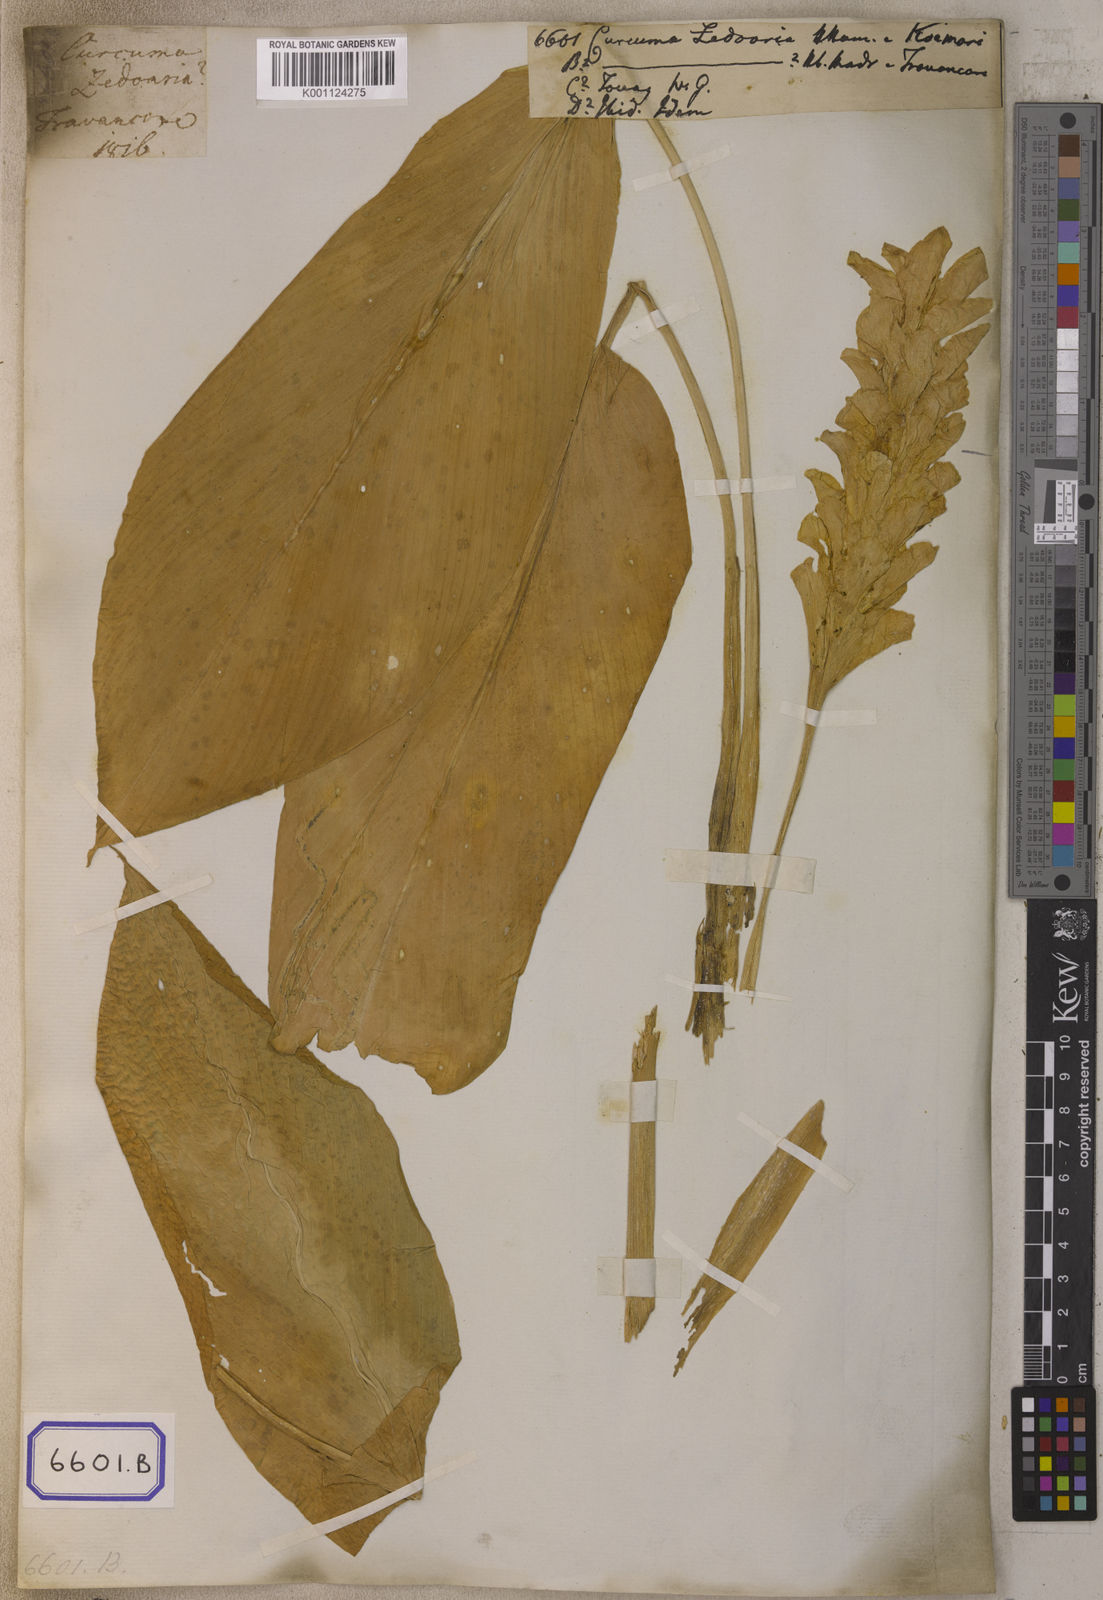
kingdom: Plantae
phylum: Tracheophyta
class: Liliopsida
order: Zingiberales
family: Zingiberaceae
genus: Curcuma
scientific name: Curcuma zedoaria
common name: Zedoary
